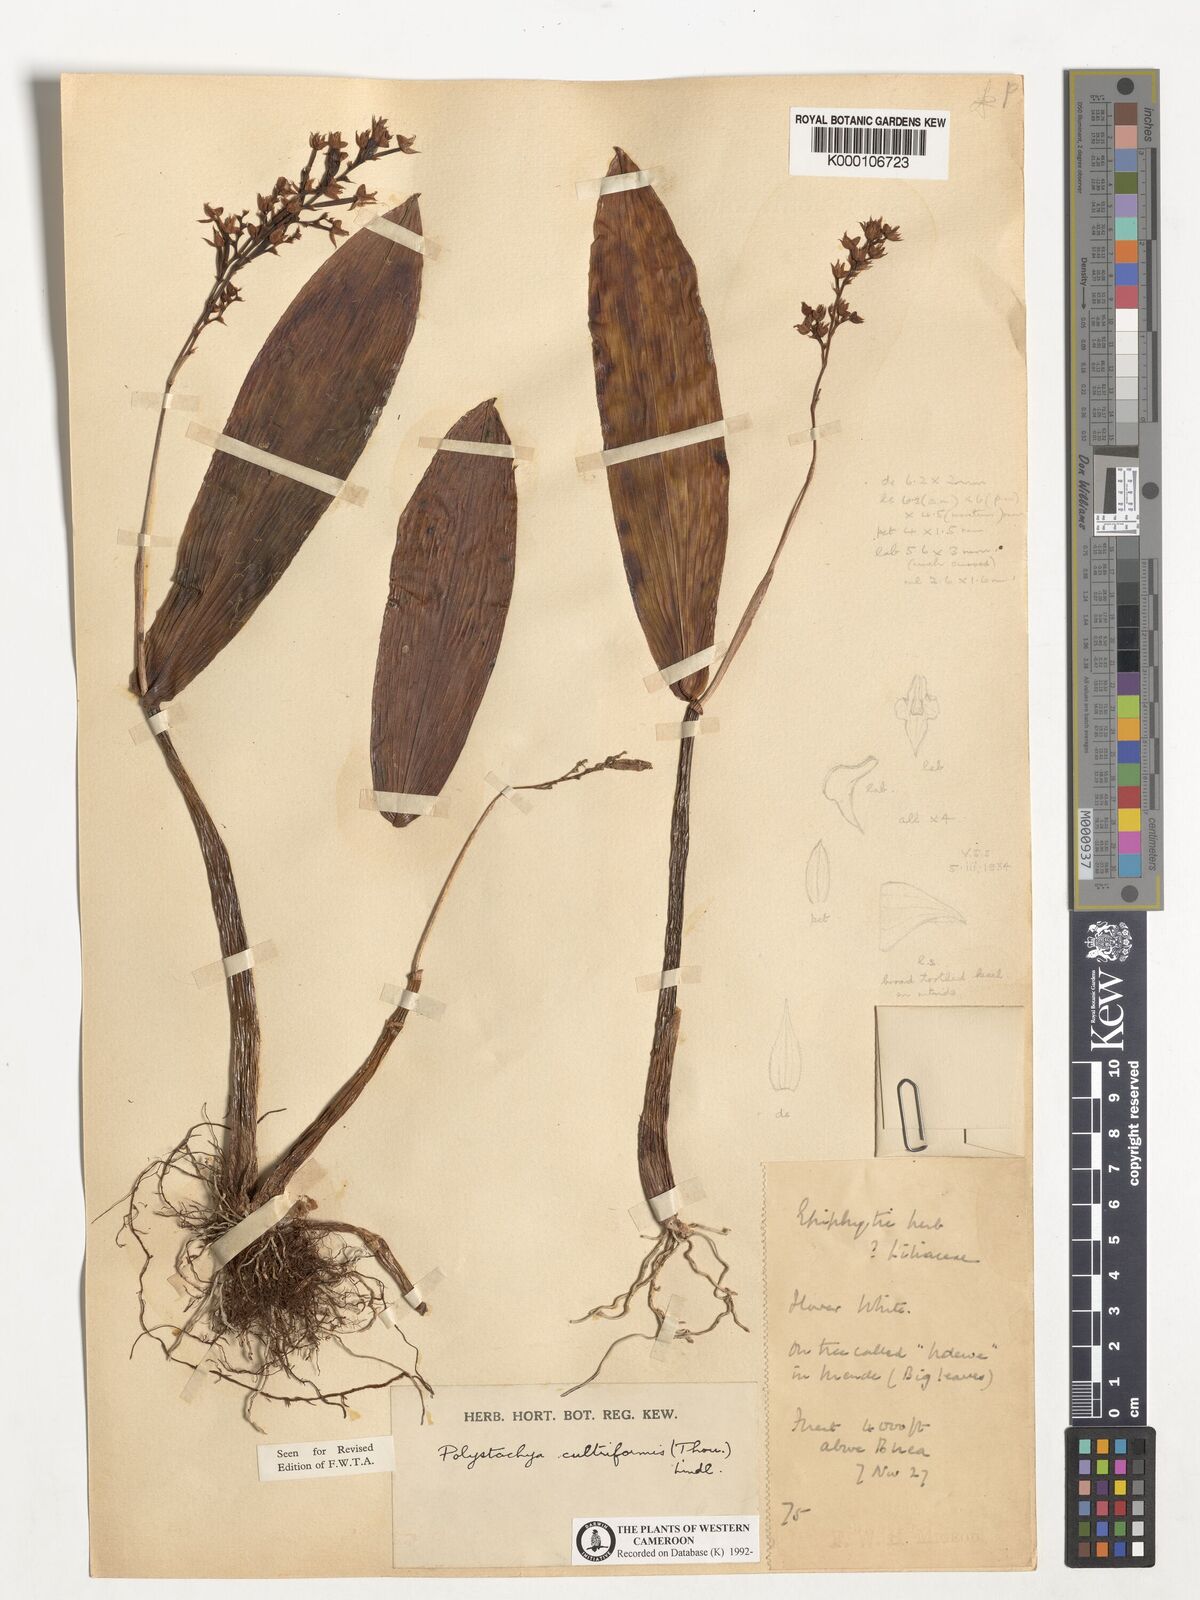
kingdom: Plantae
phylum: Tracheophyta
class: Liliopsida
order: Asparagales
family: Orchidaceae
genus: Polystachya
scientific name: Polystachya cultriformis
